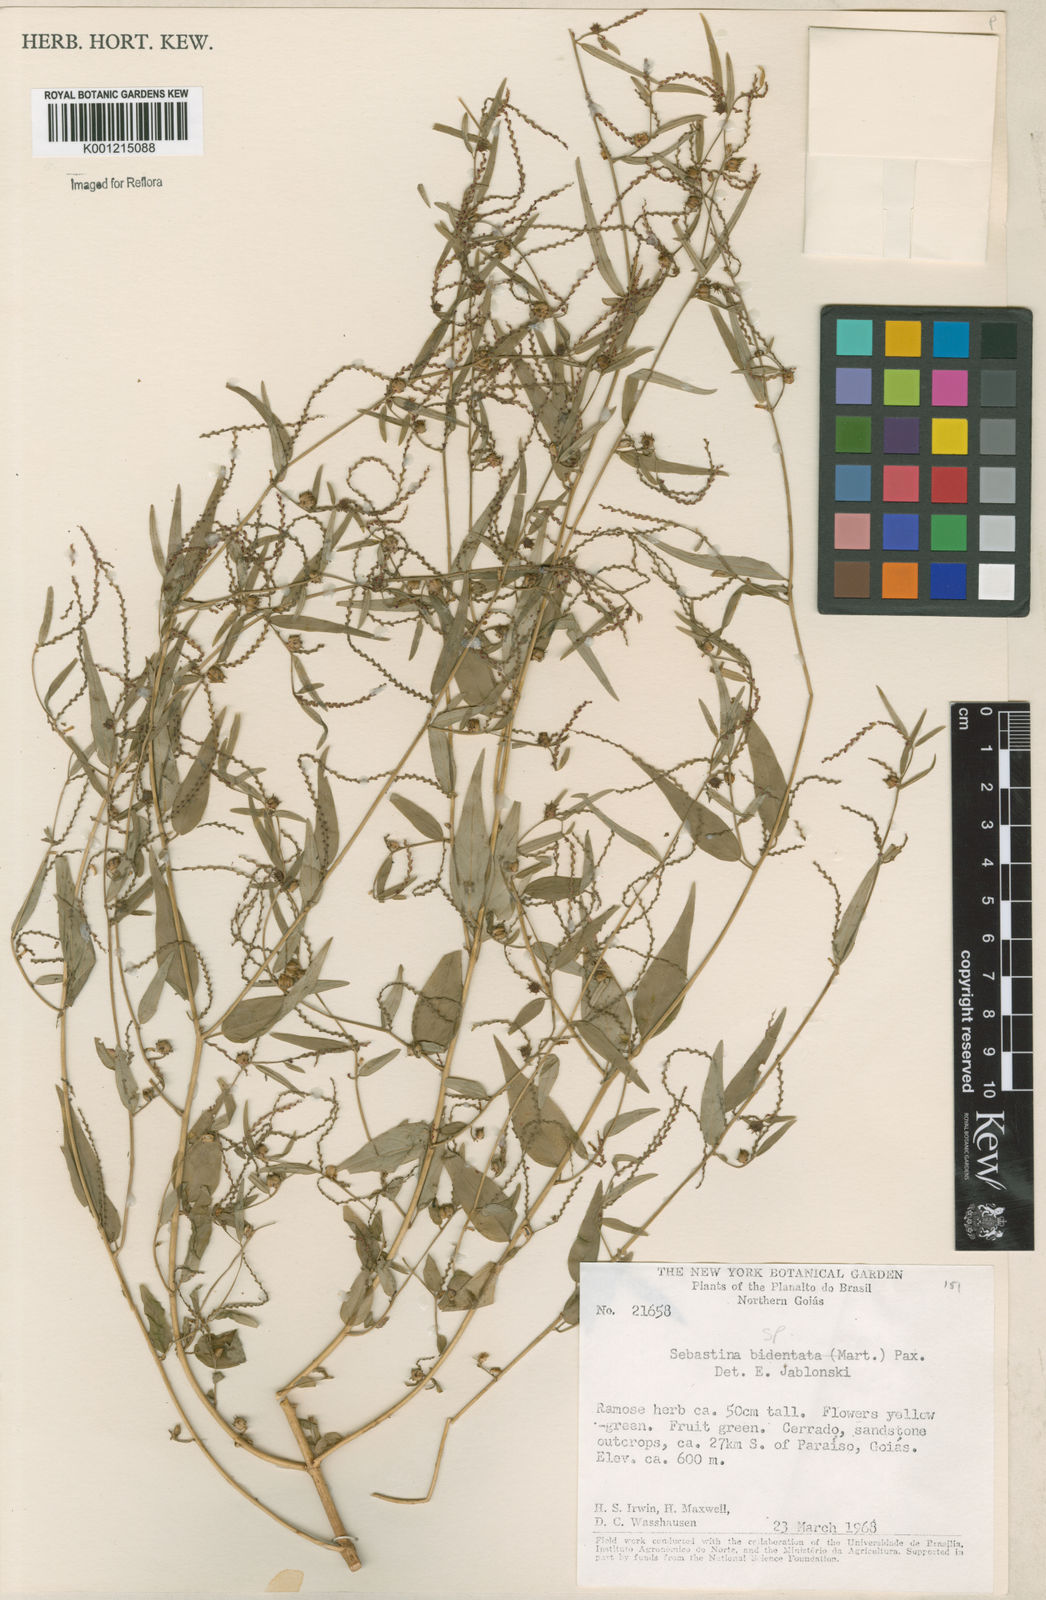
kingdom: Plantae
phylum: Tracheophyta
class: Magnoliopsida
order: Malpighiales
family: Euphorbiaceae
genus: Sebastiania
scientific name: Sebastiania
